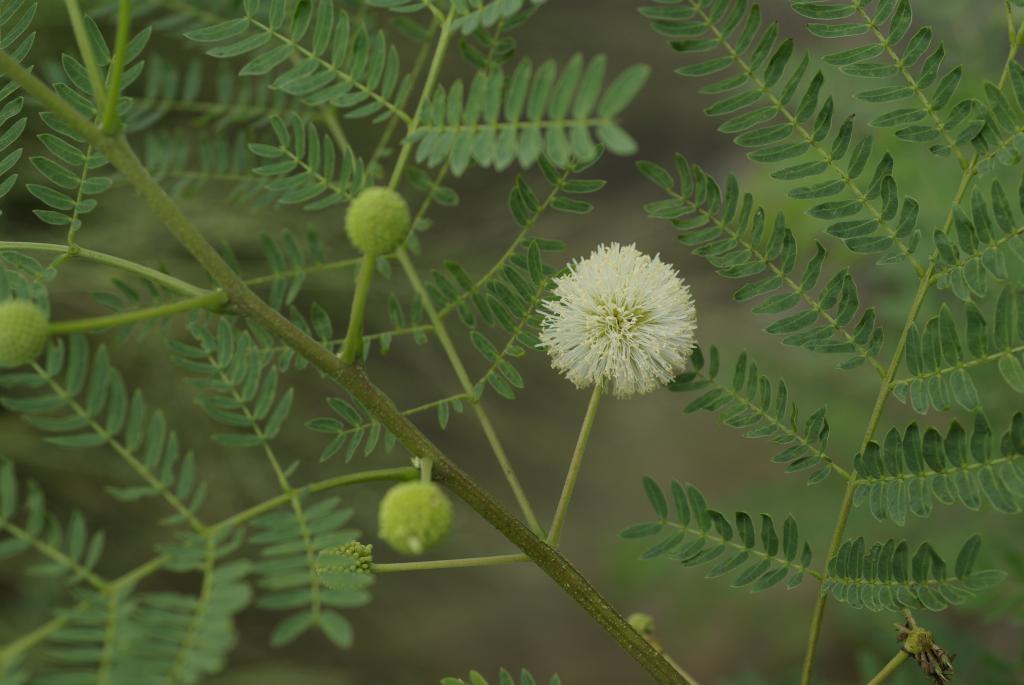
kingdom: Plantae
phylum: Tracheophyta
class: Magnoliopsida
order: Fabales
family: Fabaceae
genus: Leucaena
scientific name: Leucaena leucocephala
